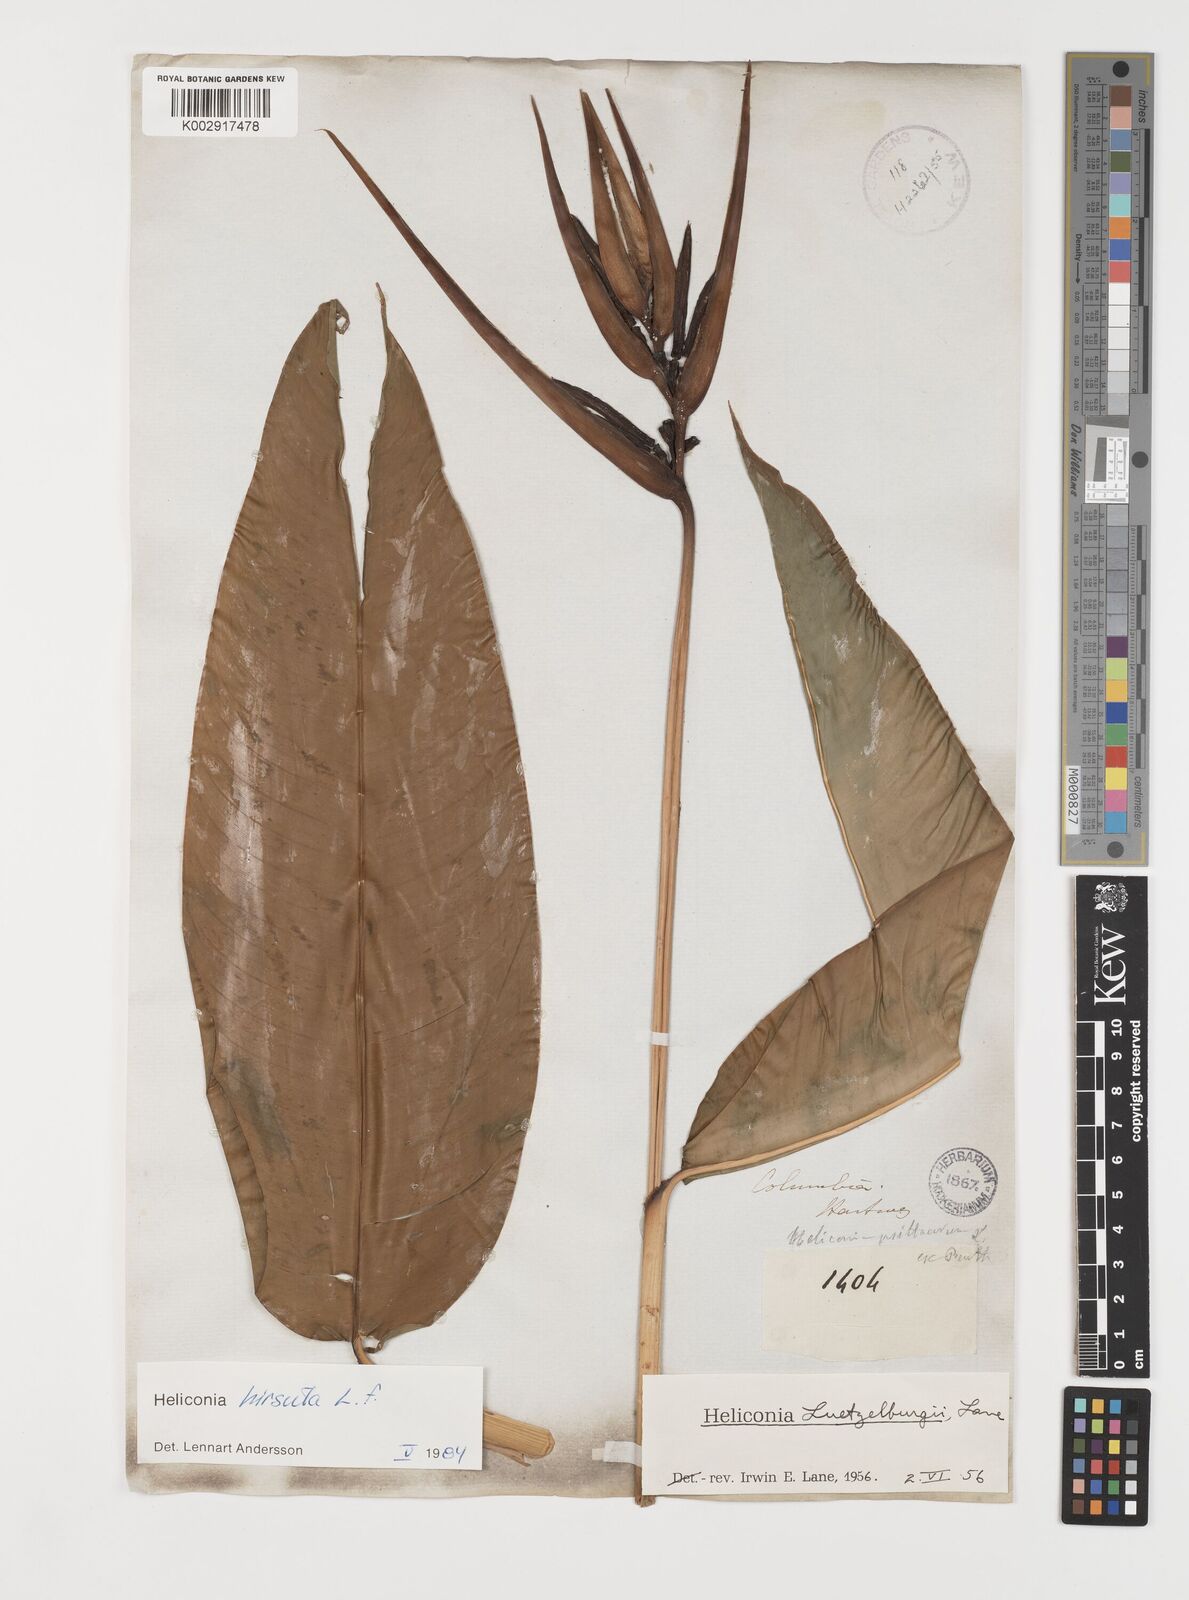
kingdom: Plantae
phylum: Tracheophyta
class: Liliopsida
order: Zingiberales
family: Heliconiaceae
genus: Heliconia
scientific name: Heliconia schiedeana
